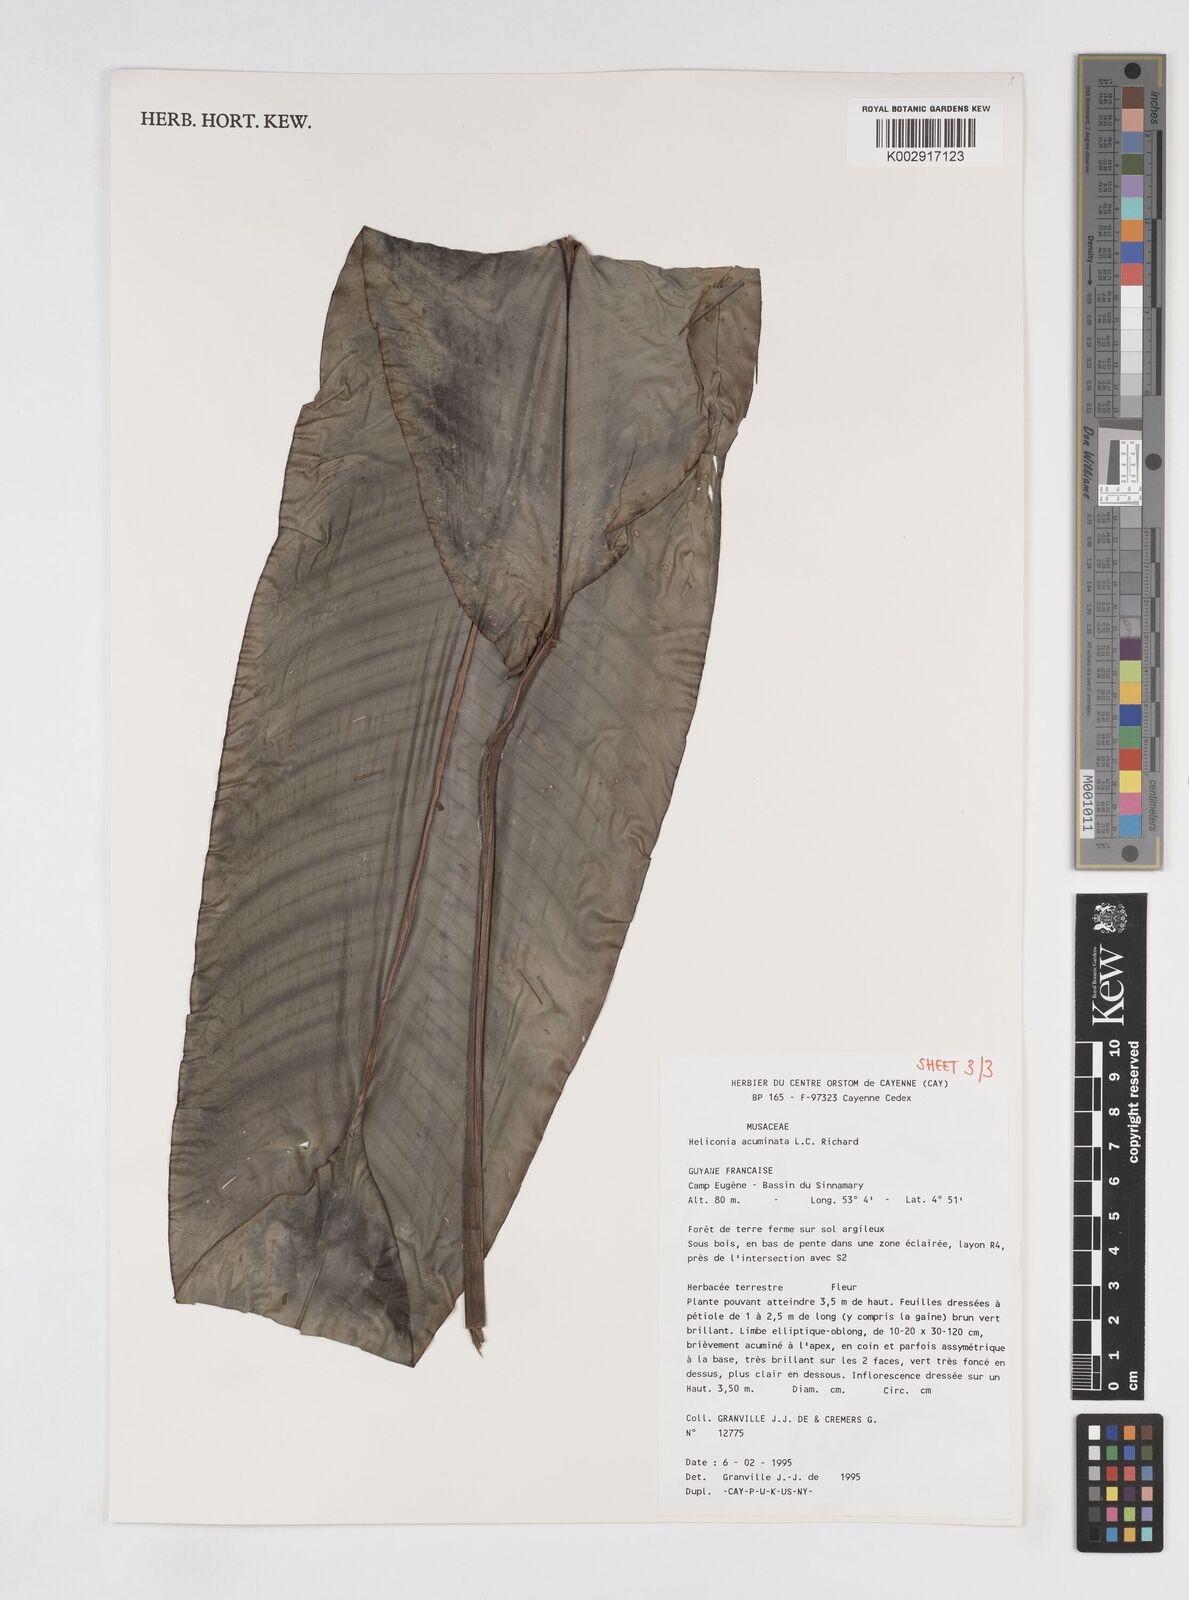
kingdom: Plantae
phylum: Tracheophyta
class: Liliopsida
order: Zingiberales
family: Heliconiaceae
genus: Heliconia
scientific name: Heliconia acuminata
